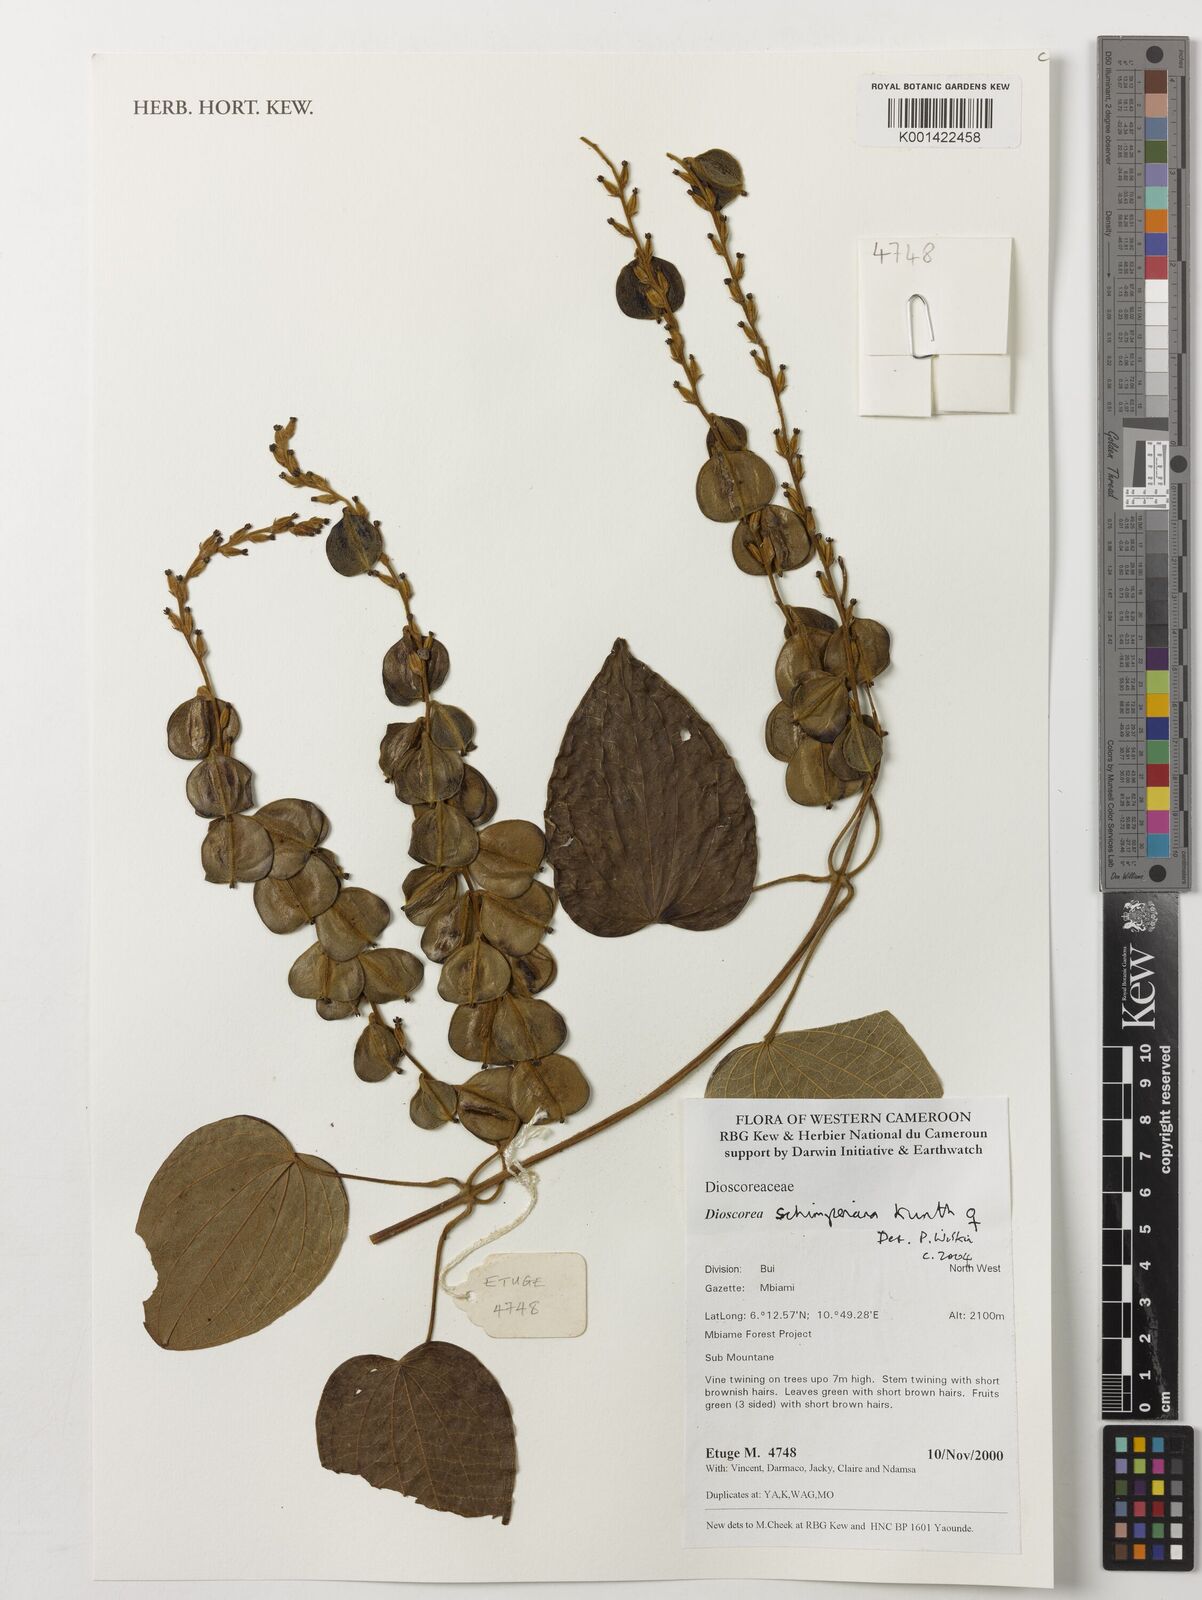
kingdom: Plantae
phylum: Tracheophyta
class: Liliopsida
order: Dioscoreales
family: Dioscoreaceae
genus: Dioscorea
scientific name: Dioscorea schimperiana
